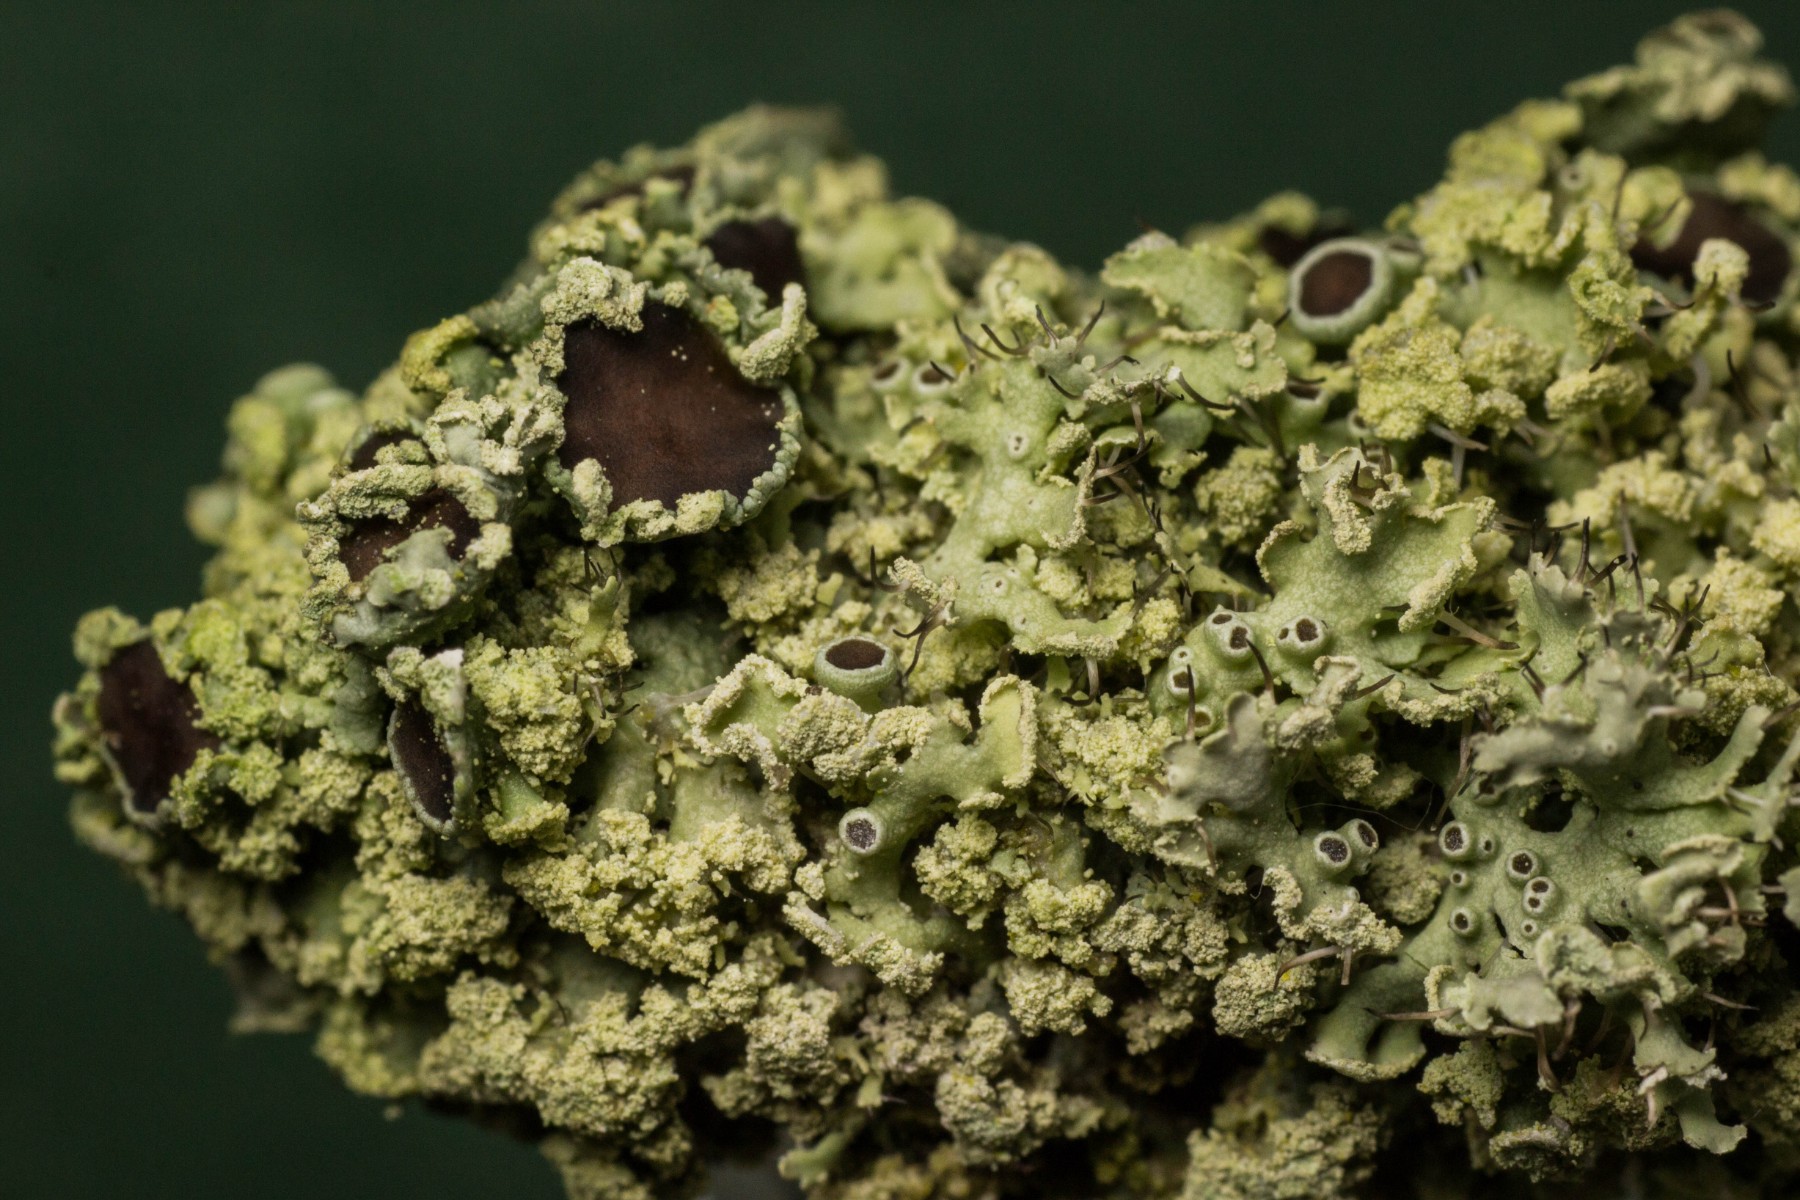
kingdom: Fungi
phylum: Ascomycota
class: Lecanoromycetes
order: Caliciales
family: Physciaceae
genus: Physcia
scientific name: Physcia tenella
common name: spæd rosetlav
